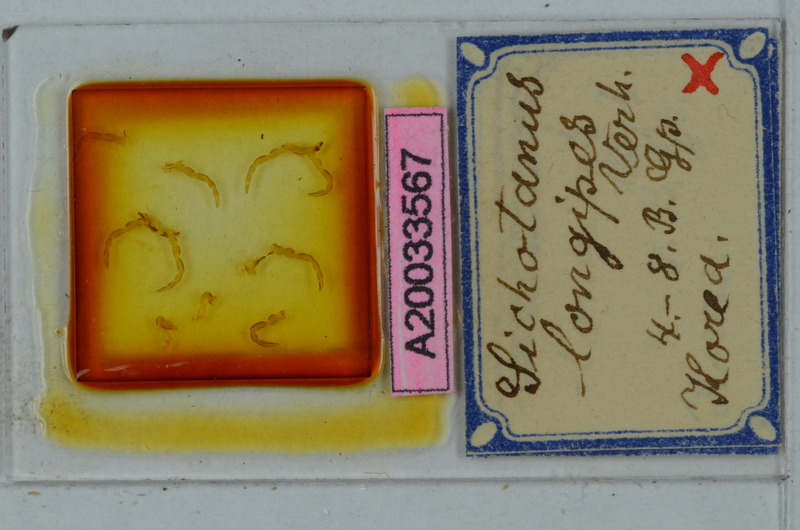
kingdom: Animalia
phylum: Arthropoda
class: Diplopoda
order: Polydesmida
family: Paradoxosomatidae
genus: Sichotanus
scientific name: Sichotanus longipes
